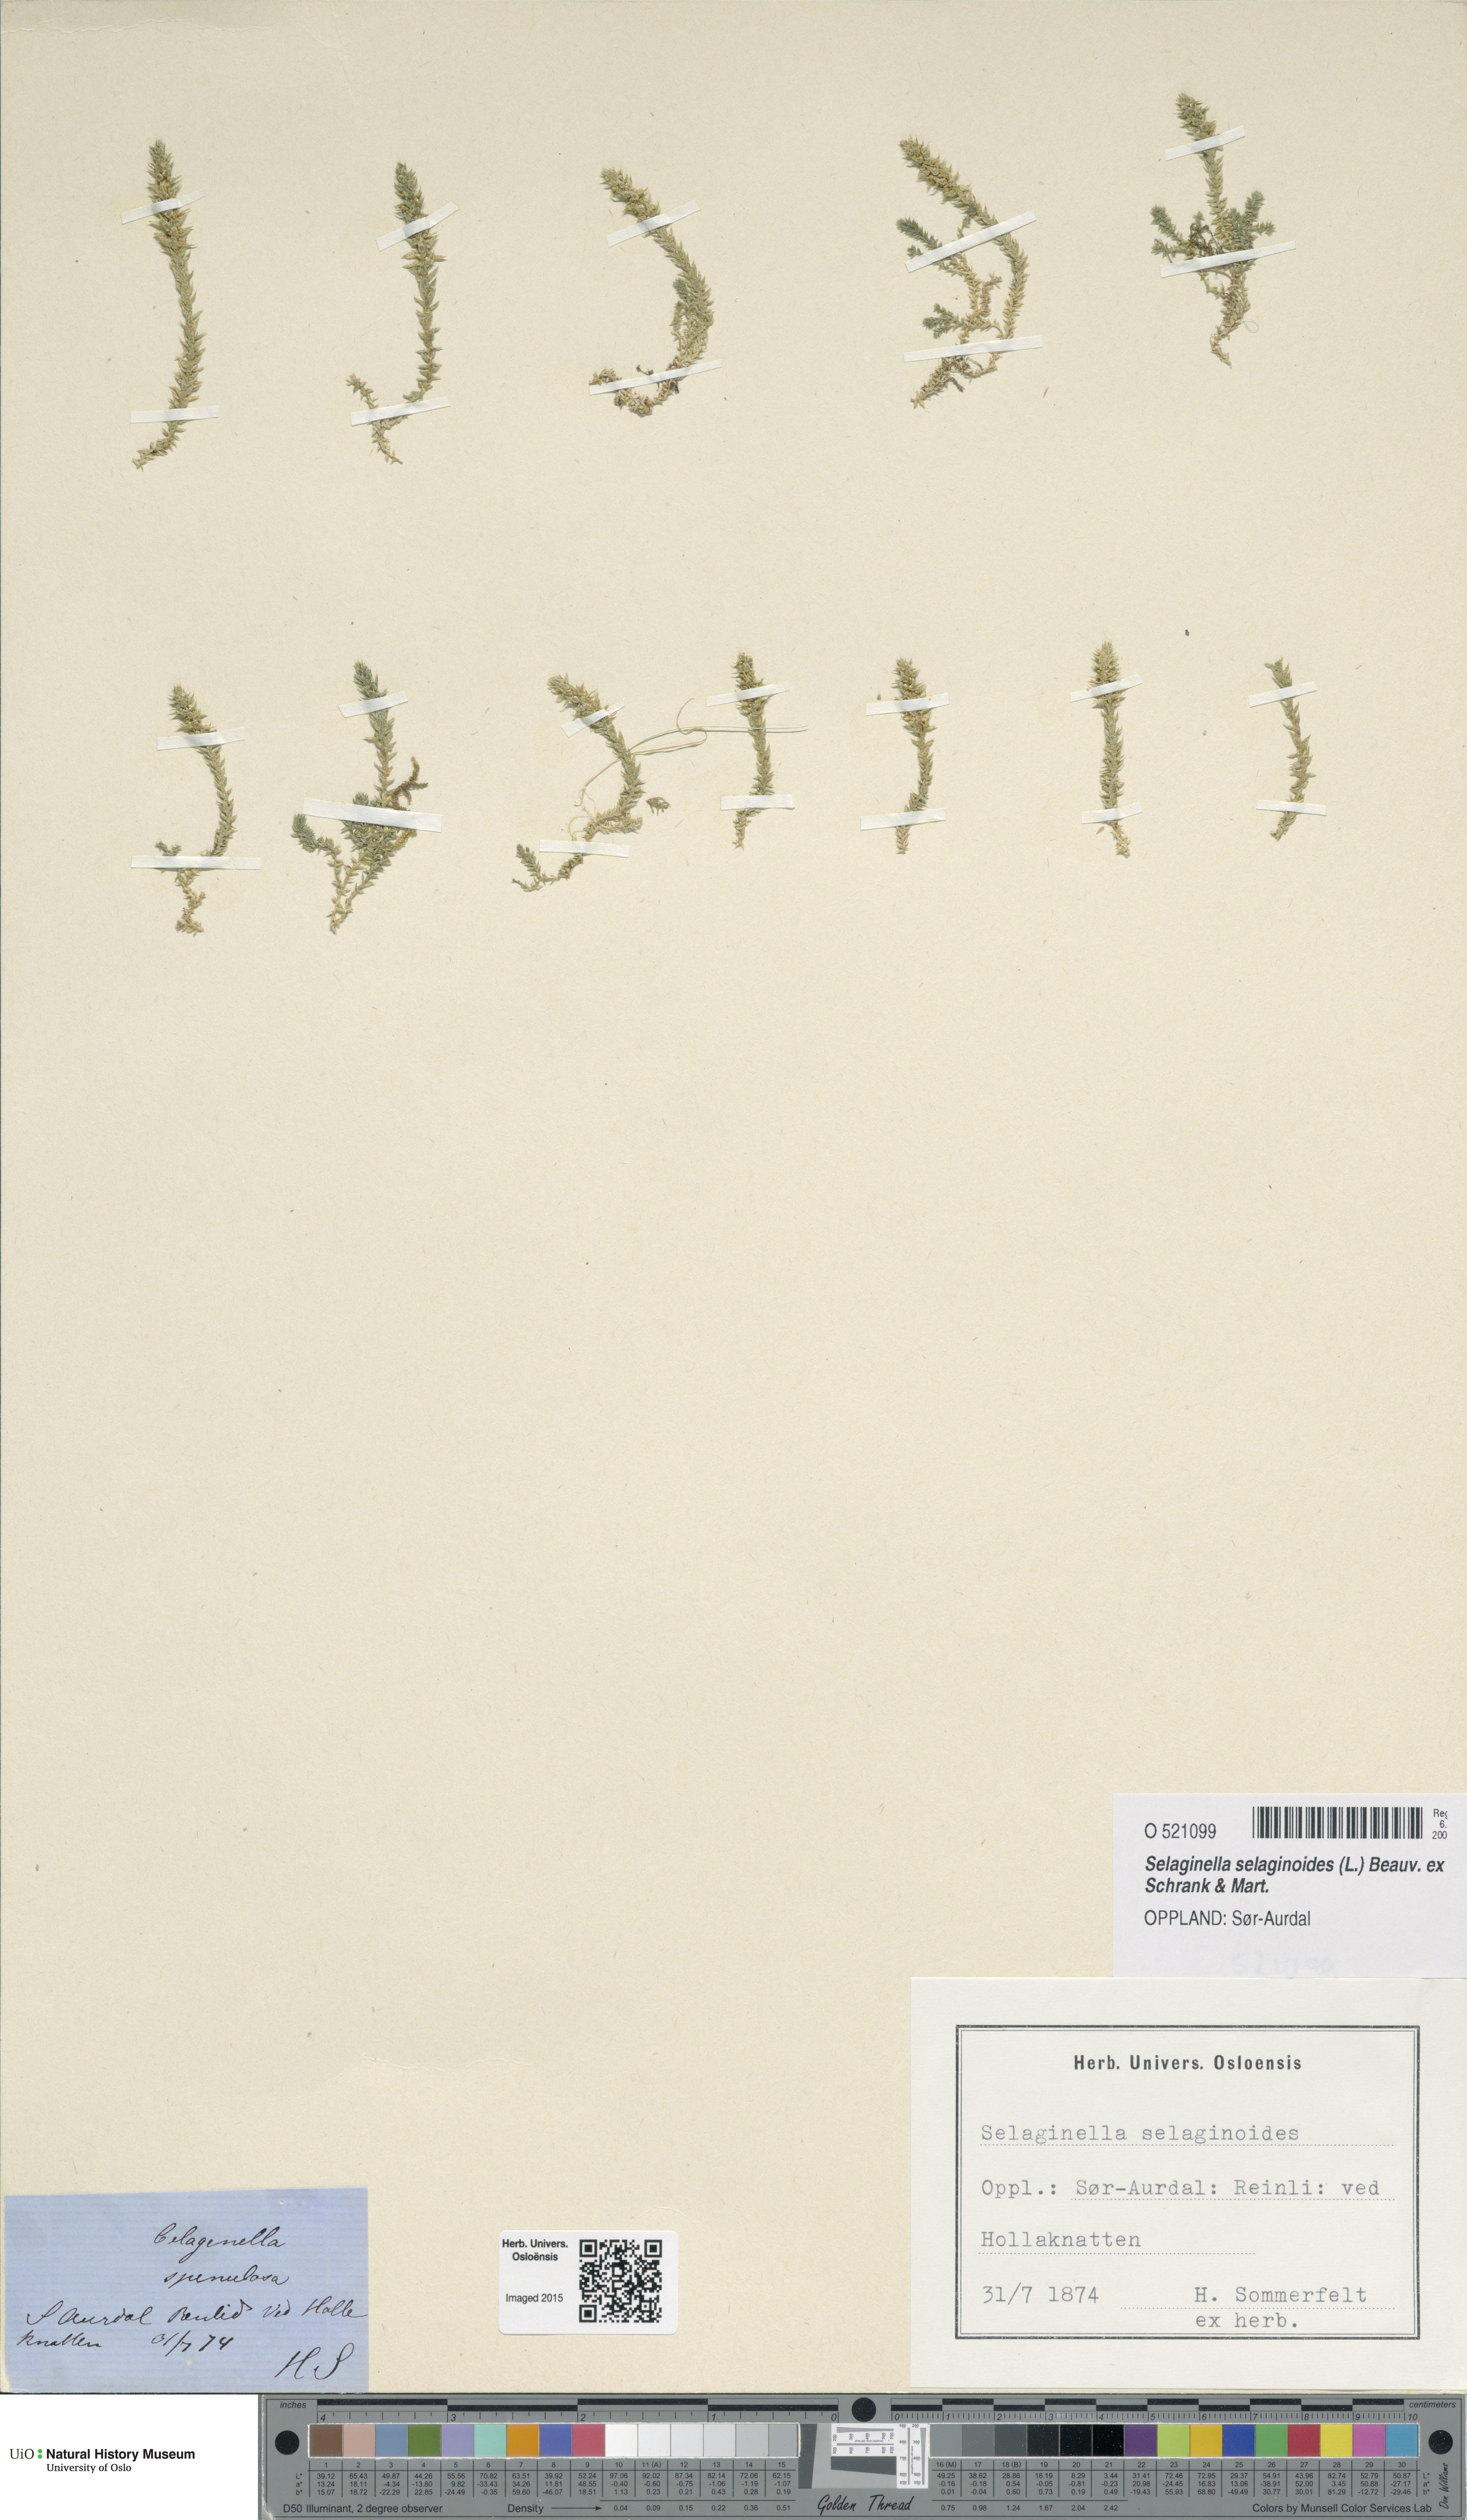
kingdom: Plantae
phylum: Tracheophyta
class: Lycopodiopsida
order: Selaginellales
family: Selaginellaceae
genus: Selaginella
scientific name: Selaginella selaginoides
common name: Prickly mountain-moss
